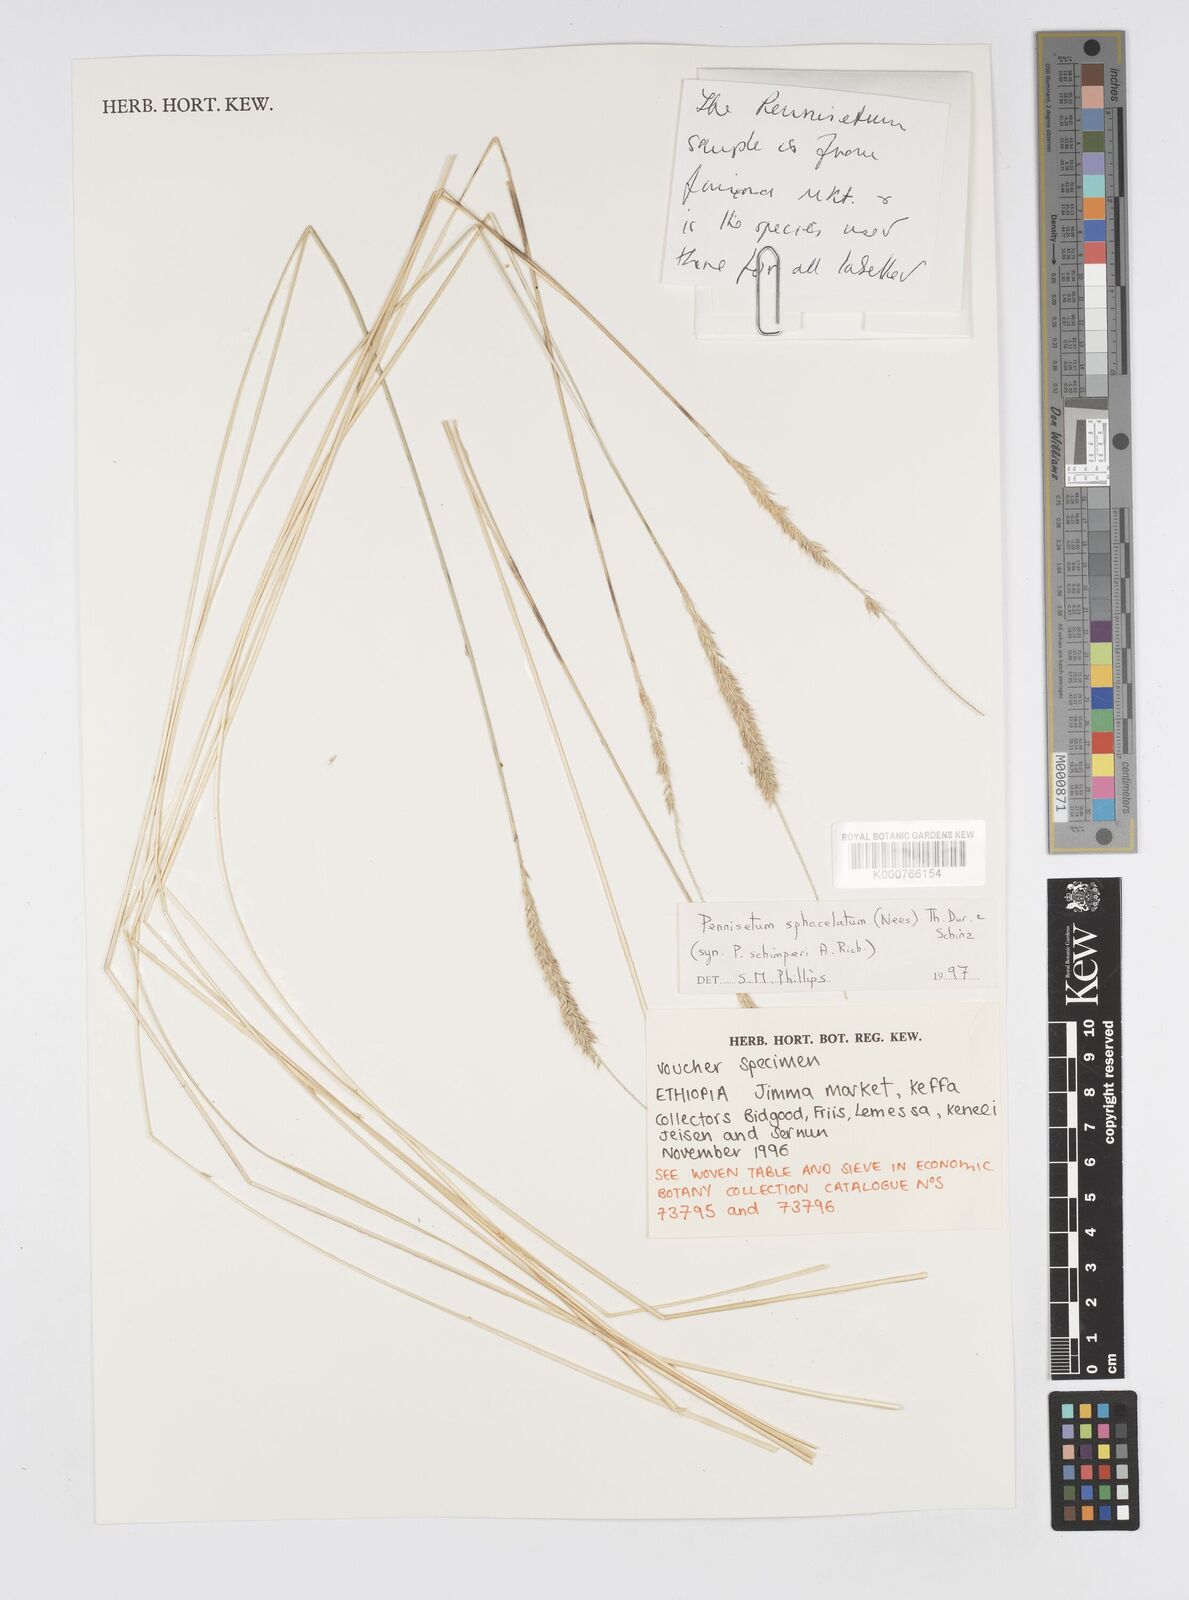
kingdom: Plantae
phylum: Tracheophyta
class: Liliopsida
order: Poales
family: Poaceae
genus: Cenchrus
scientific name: Cenchrus sphacelatus
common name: Bulgras
